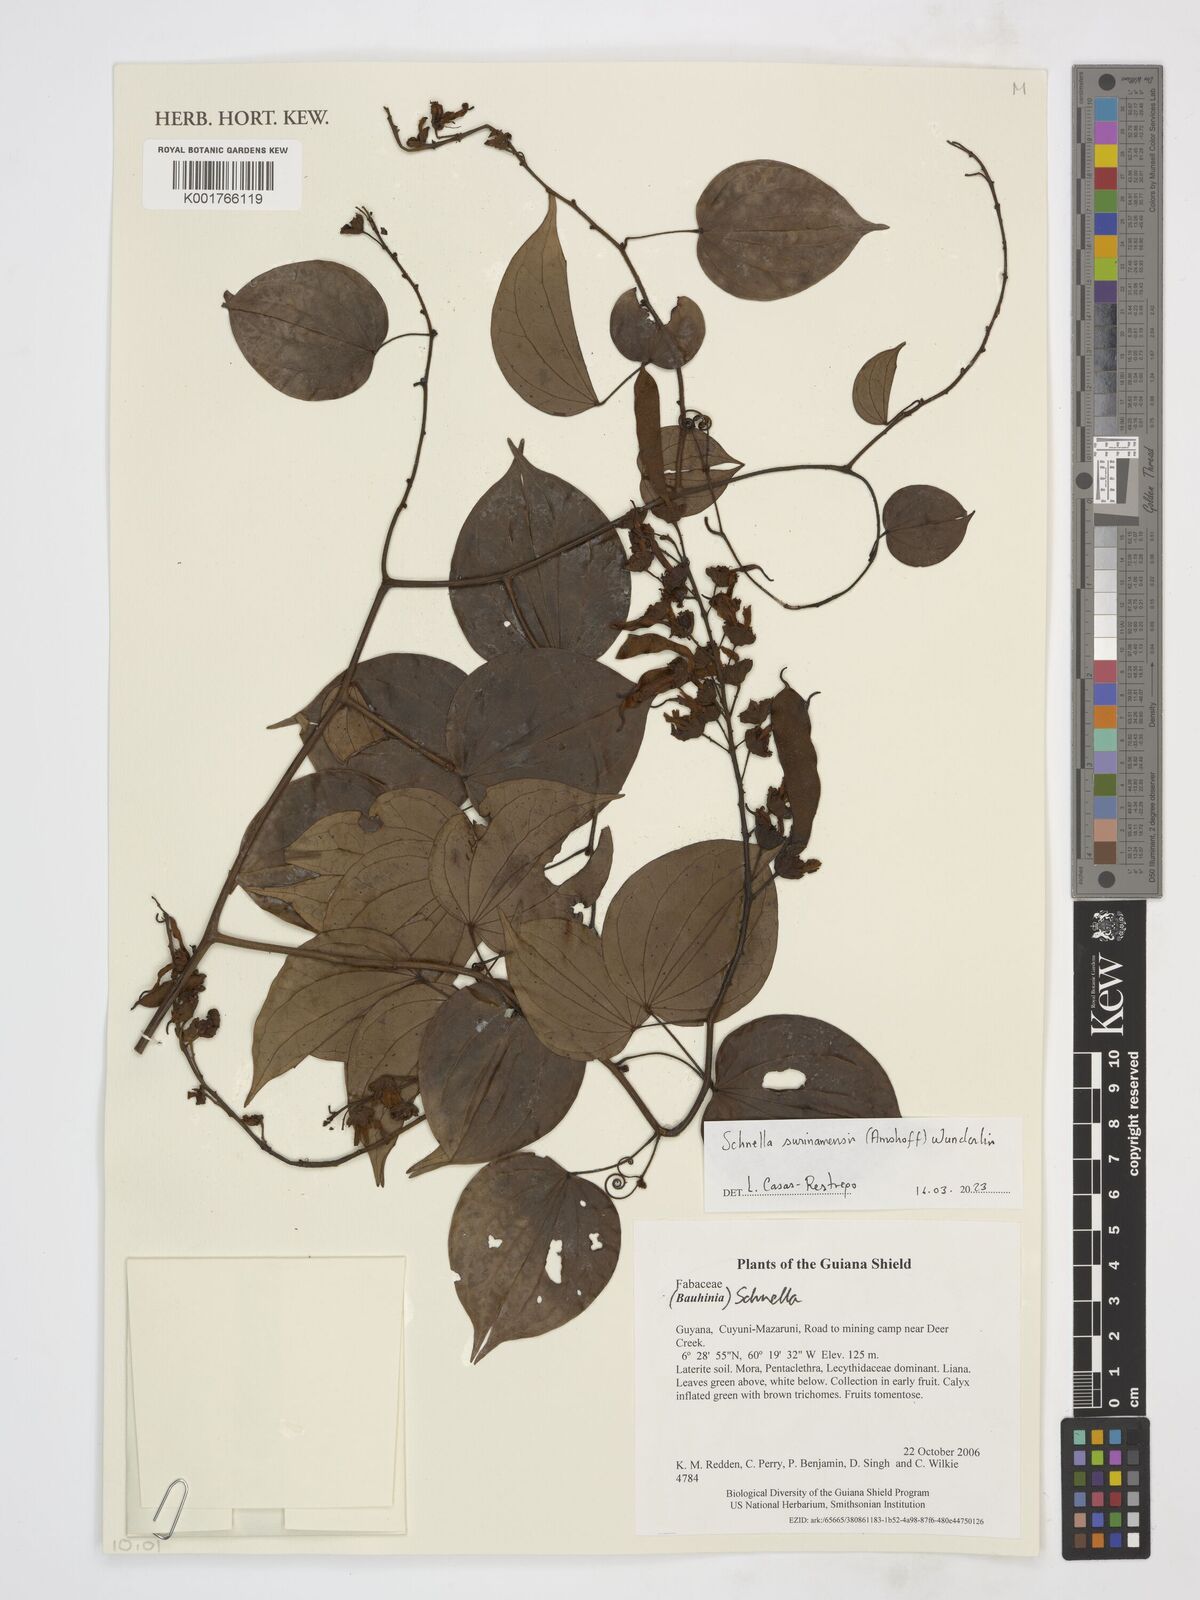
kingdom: Plantae
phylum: Tracheophyta
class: Magnoliopsida
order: Fabales
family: Fabaceae
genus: Schnella
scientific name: Schnella surinamensis
